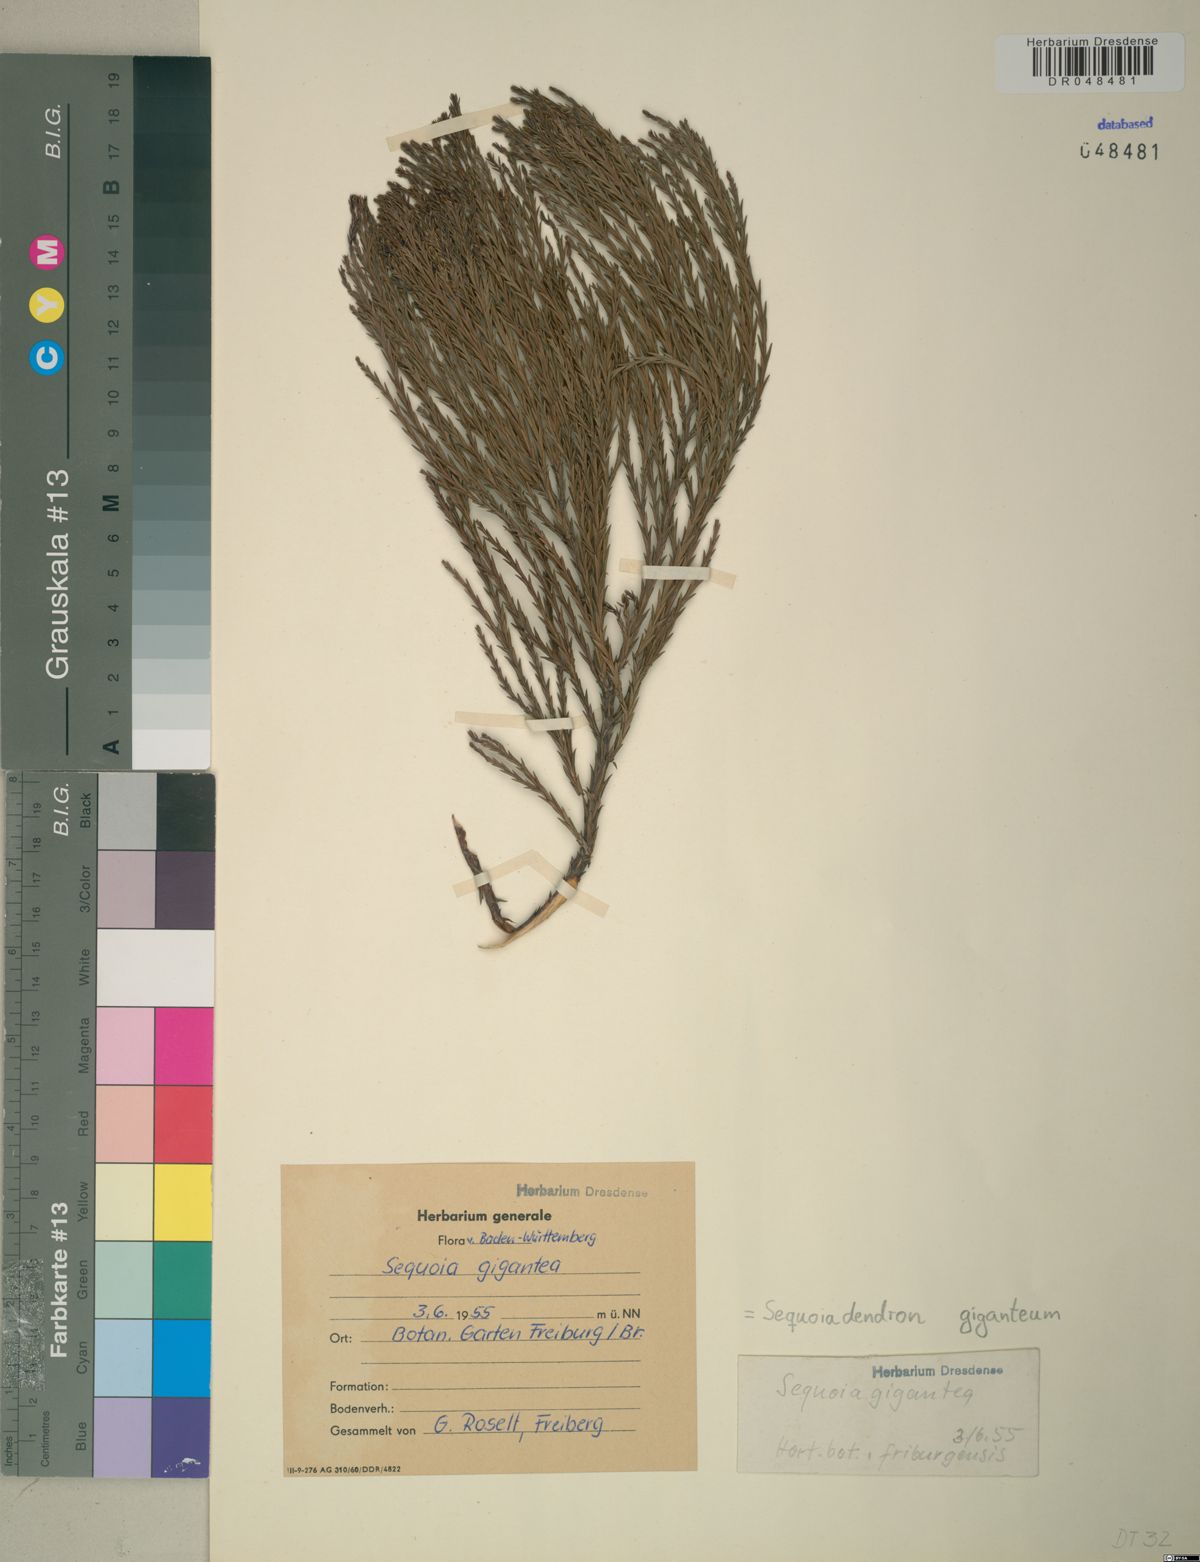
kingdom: Plantae
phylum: Tracheophyta
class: Pinopsida
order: Pinales
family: Cupressaceae
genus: Sequoiadendron
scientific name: Sequoiadendron giganteum
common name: Wellingtonia
